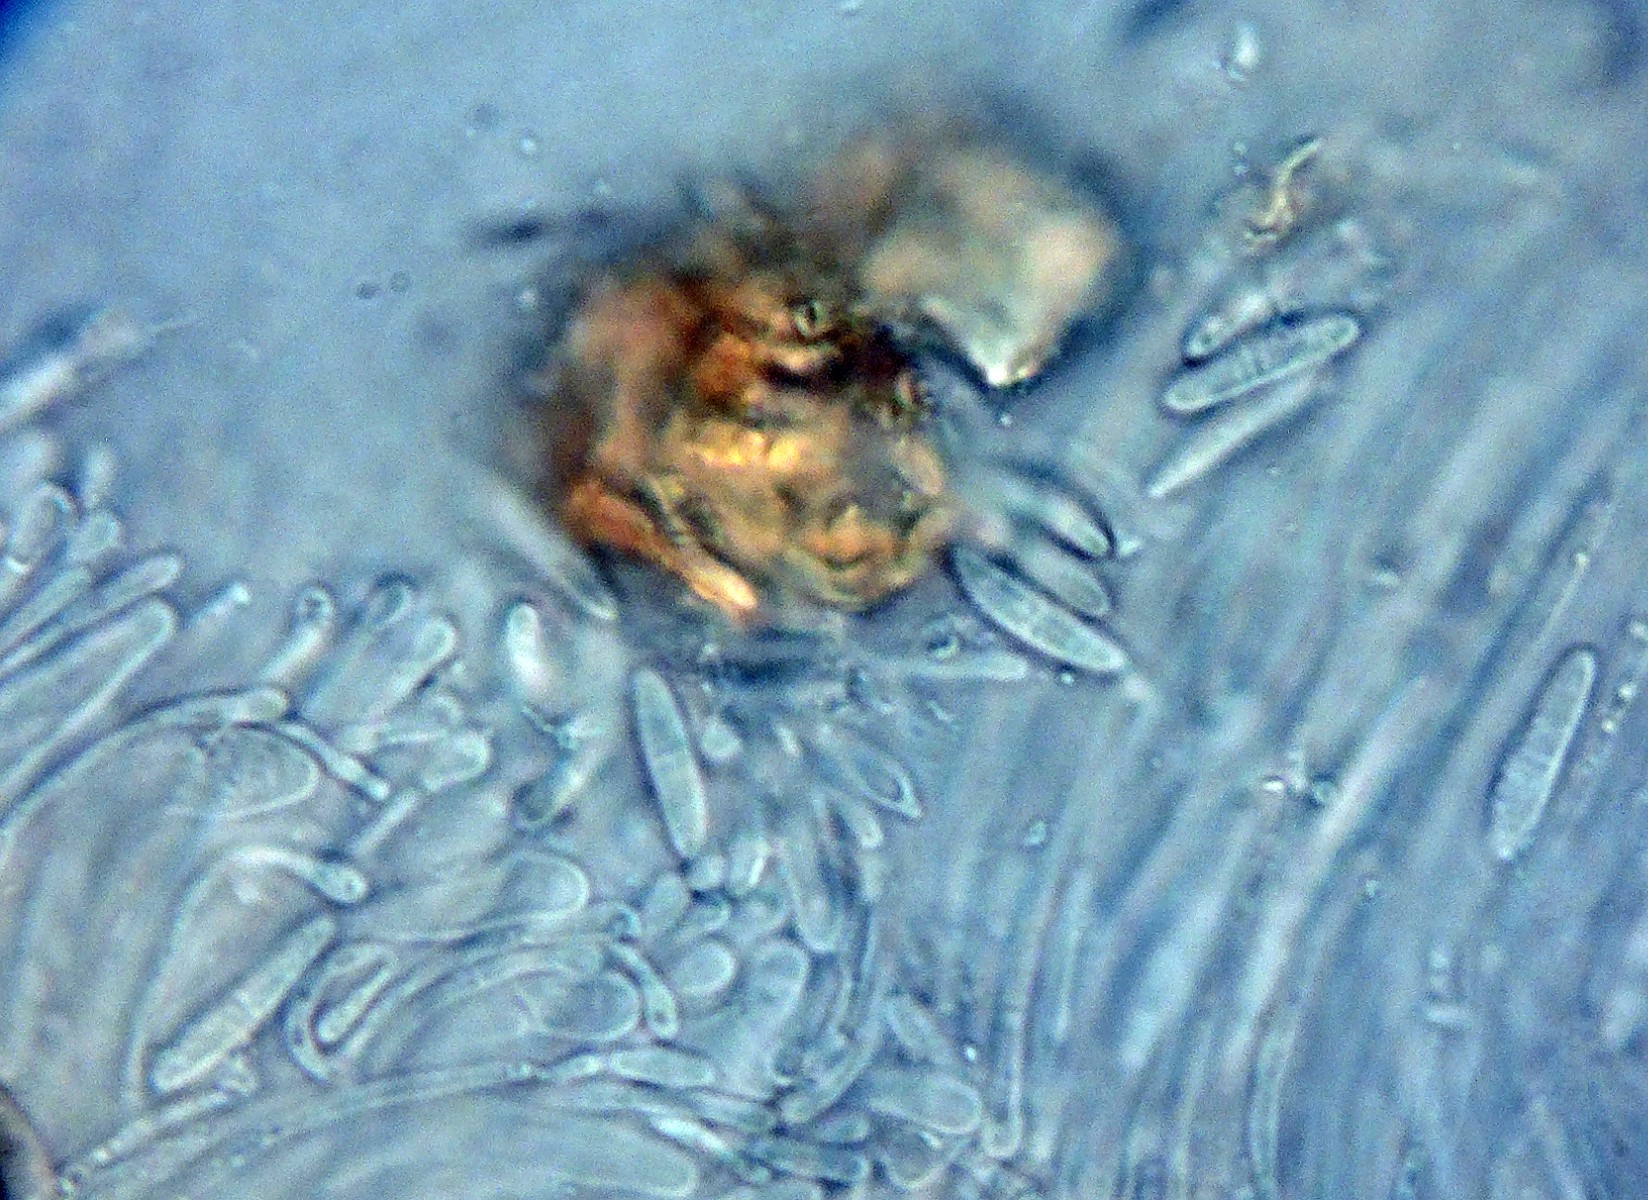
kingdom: Fungi
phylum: Ascomycota
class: Lecanoromycetes
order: Ostropales
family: Stictidaceae
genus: Cryptodiscus
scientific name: Cryptodiscus foveolaris
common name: ellipse-barkhul
